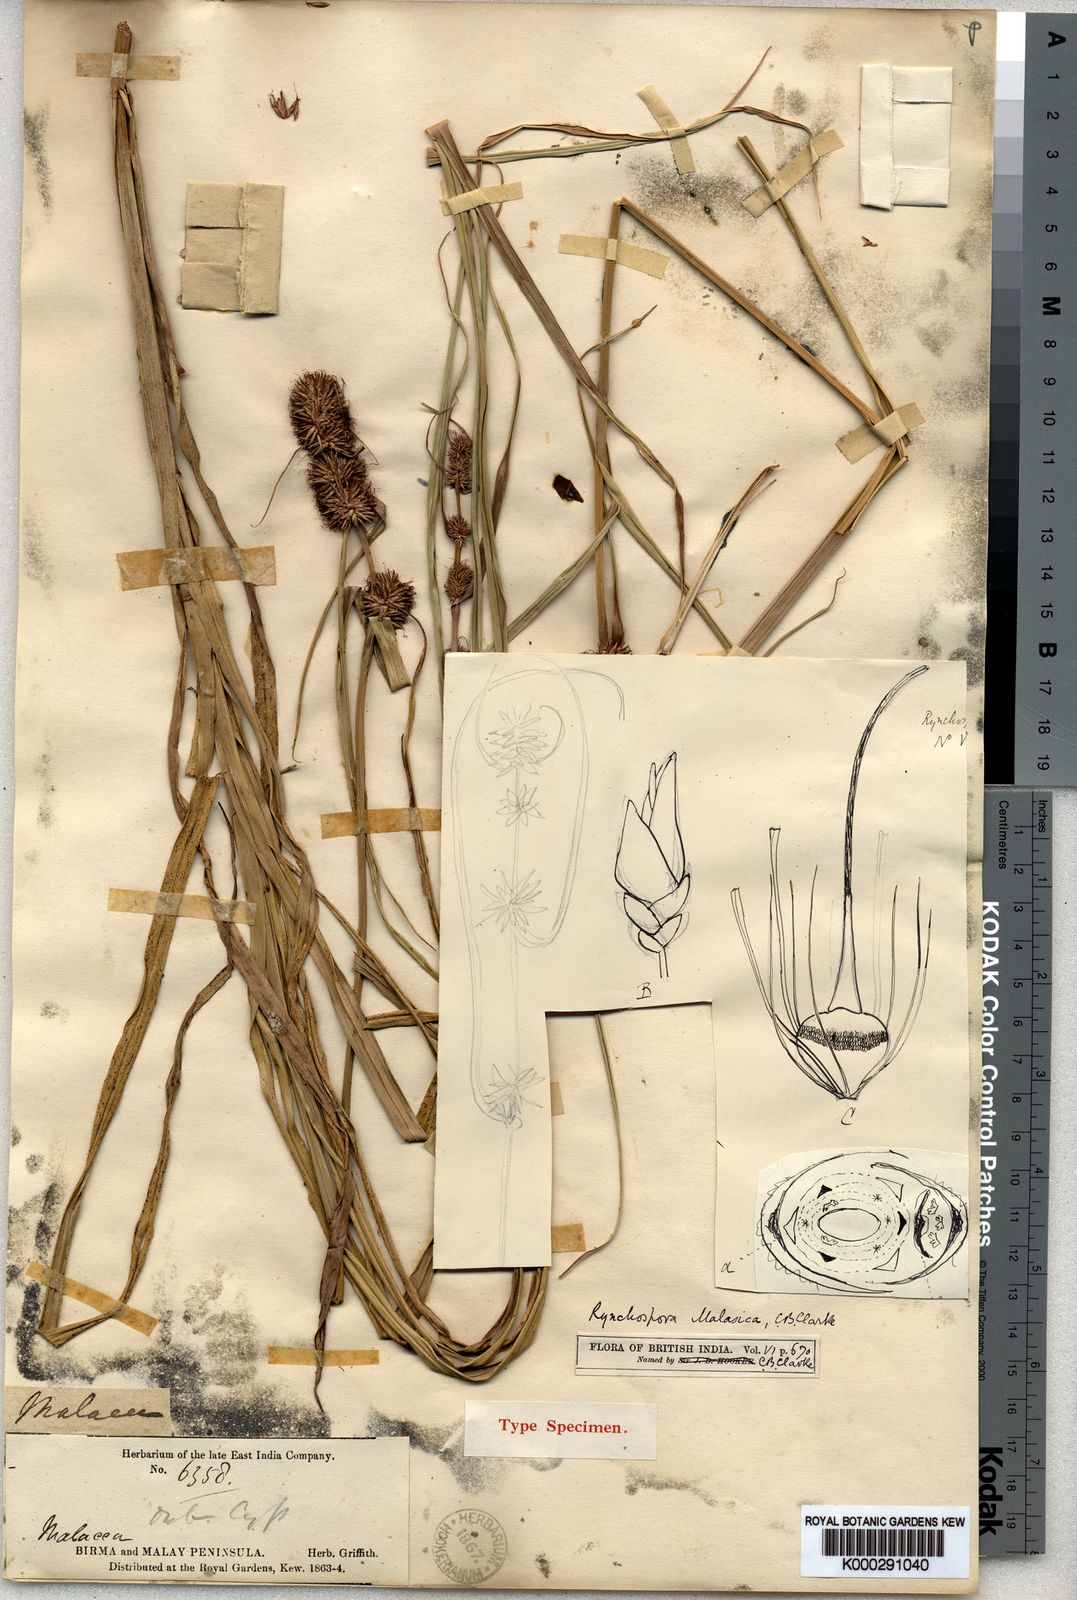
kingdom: Plantae
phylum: Tracheophyta
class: Liliopsida
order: Poales
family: Cyperaceae
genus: Rhynchospora
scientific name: Rhynchospora malasica
